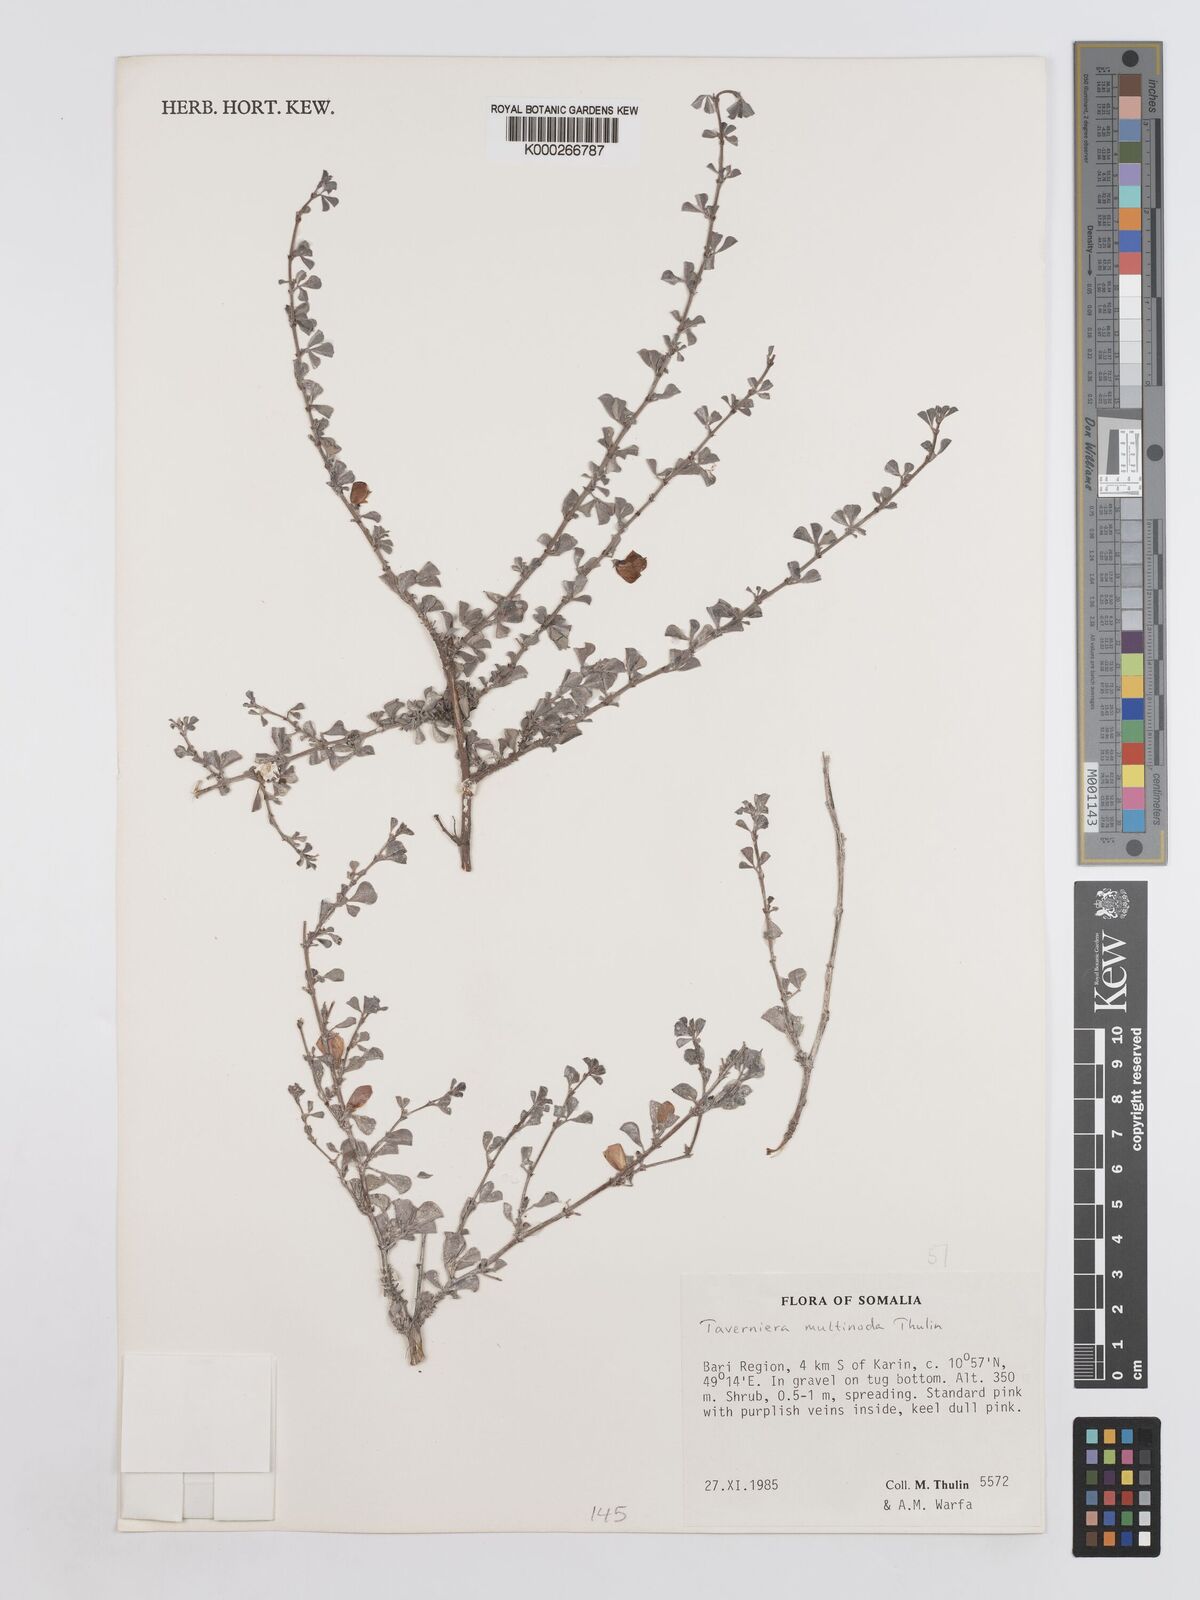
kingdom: Plantae
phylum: Tracheophyta
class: Magnoliopsida
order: Fabales
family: Fabaceae
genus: Taverniera
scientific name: Taverniera multinoda
